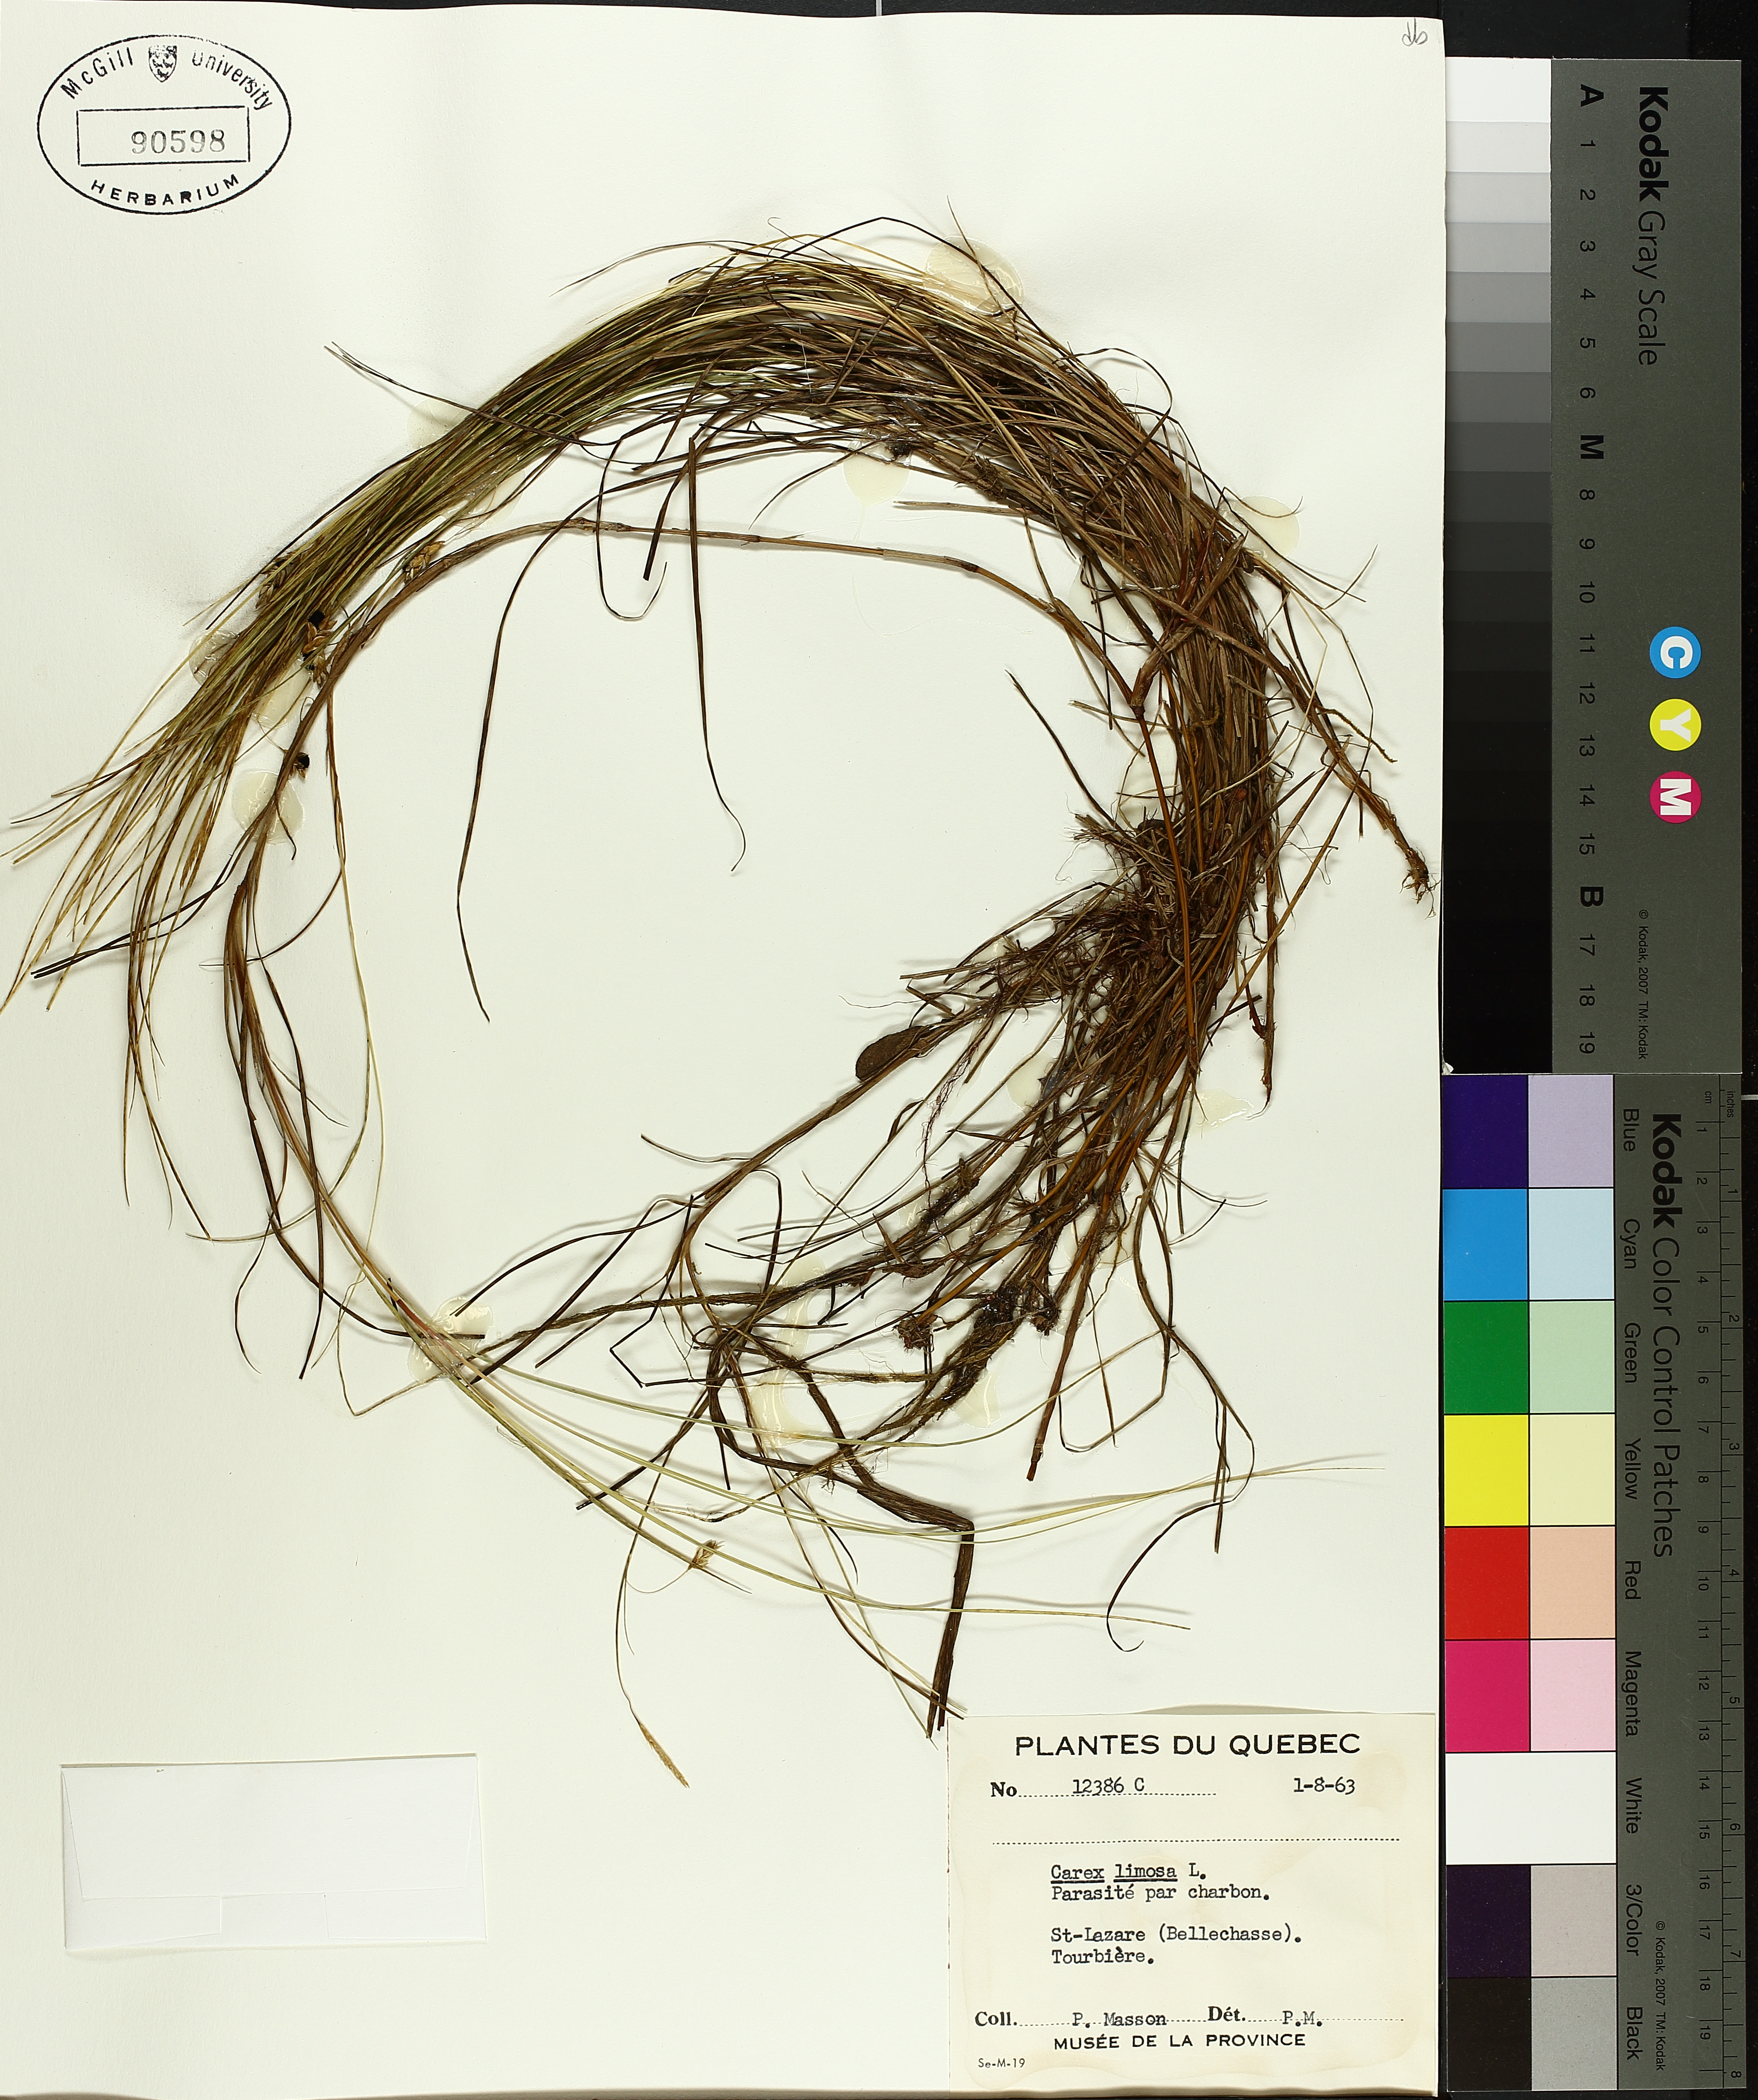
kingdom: Plantae
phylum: Tracheophyta
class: Liliopsida
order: Poales
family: Cyperaceae
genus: Carex
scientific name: Carex limosa
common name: Bog sedge
